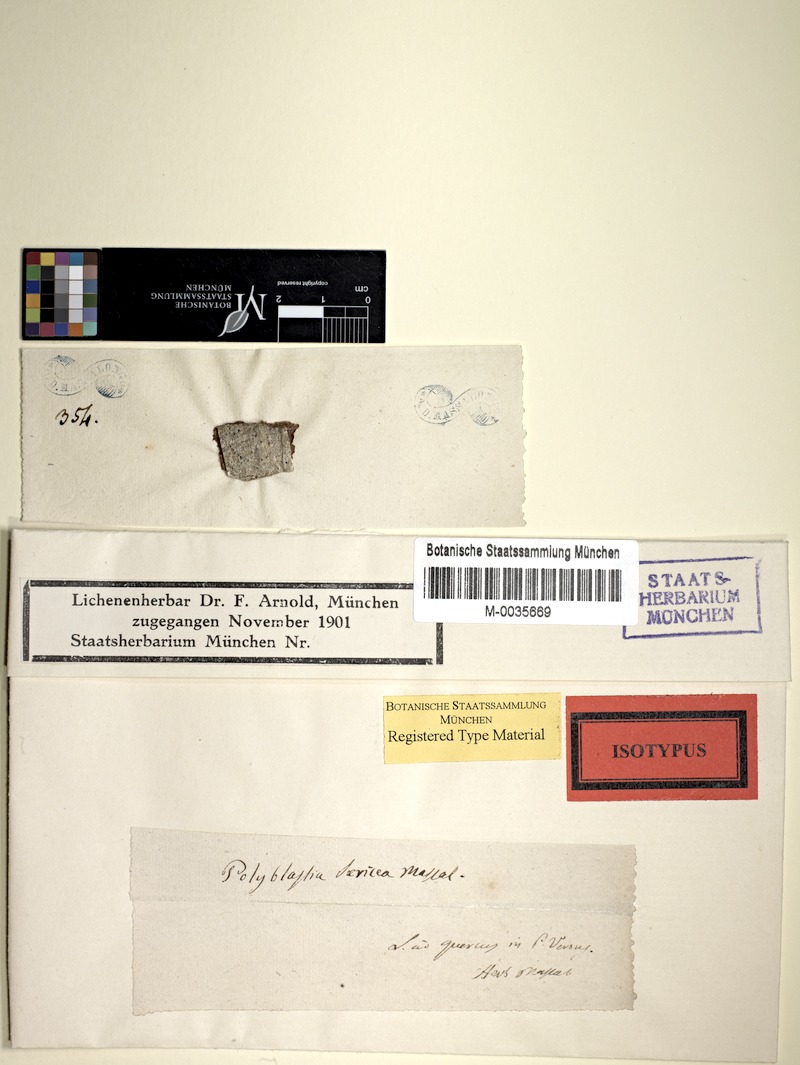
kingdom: Fungi
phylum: Ascomycota
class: Lecanoromycetes
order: Ostropales
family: Thelenellaceae
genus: Julella
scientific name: Julella sericea
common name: Silky white stain lichen
